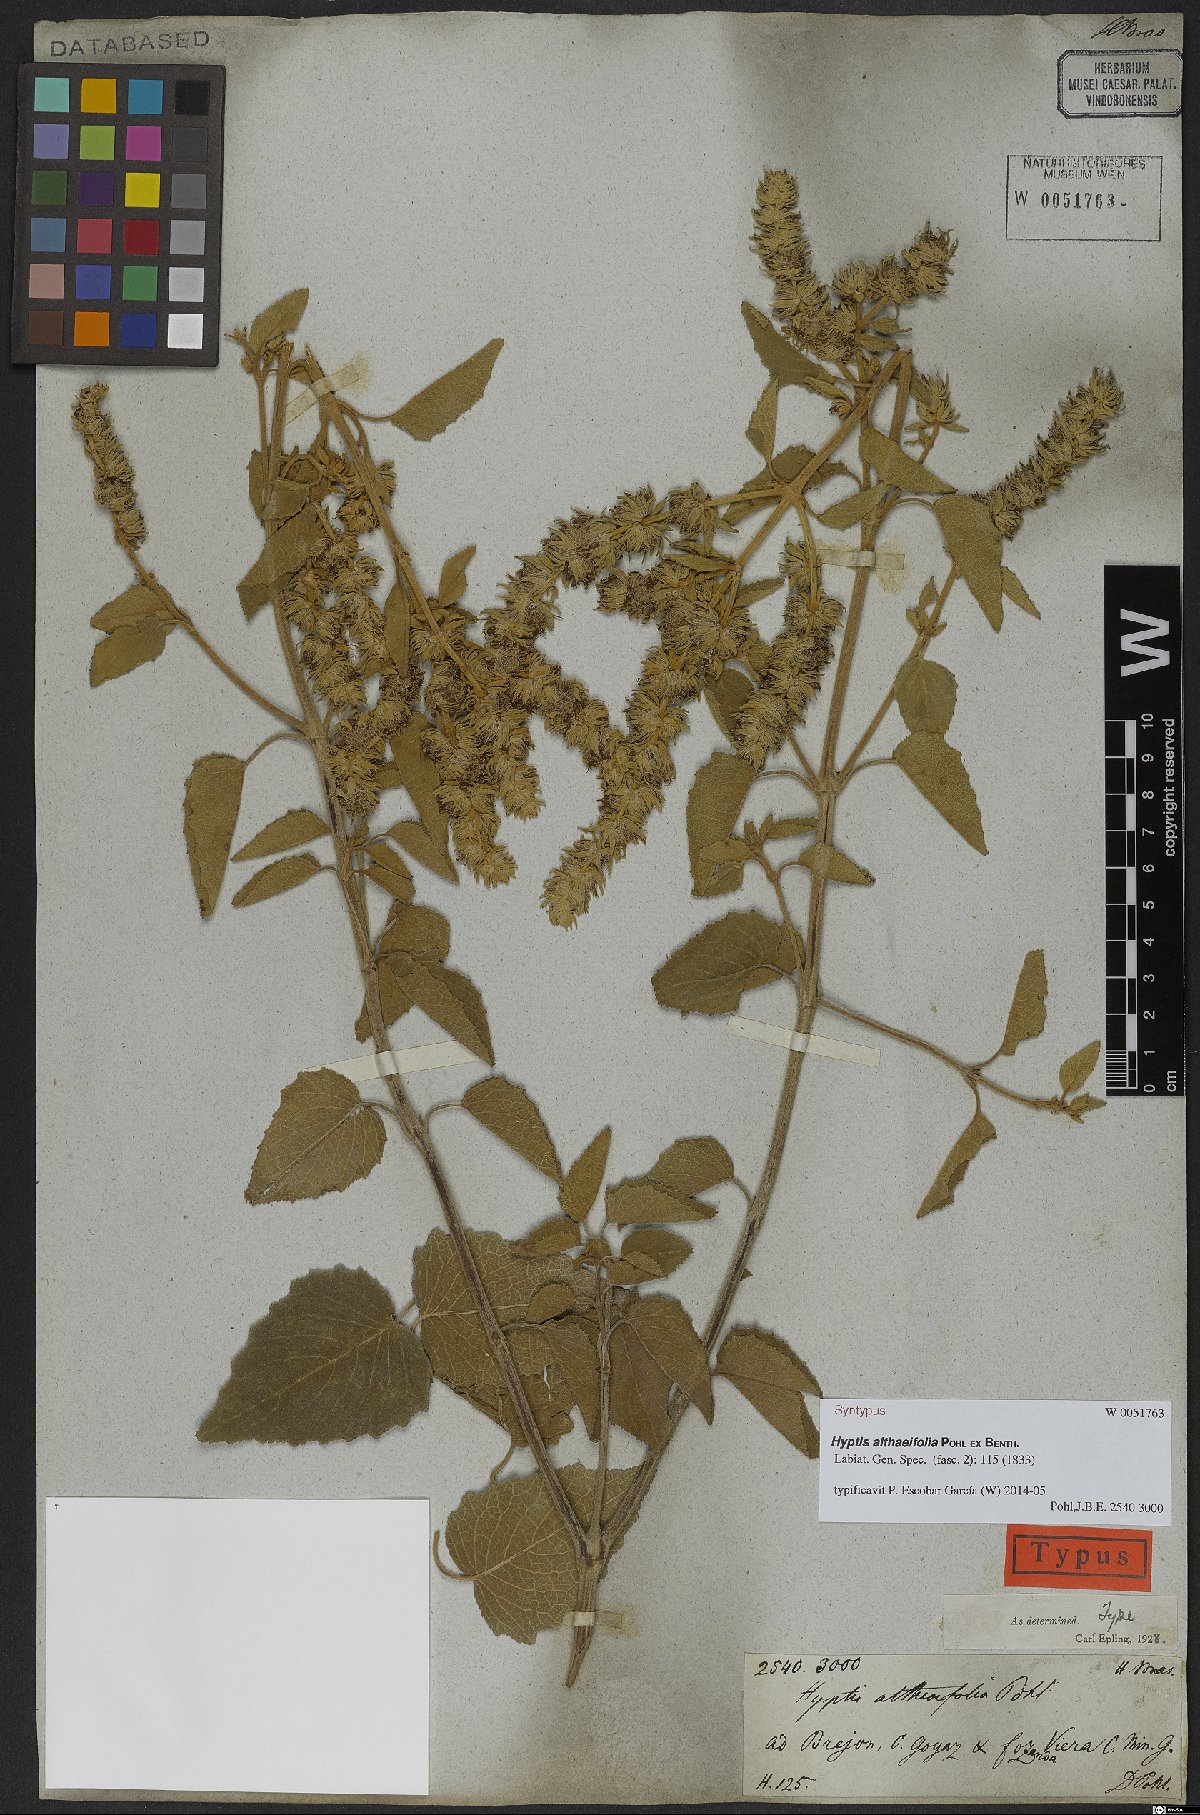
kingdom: Plantae
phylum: Tracheophyta
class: Magnoliopsida
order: Lamiales
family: Lamiaceae
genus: Cantinoa
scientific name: Cantinoa althaeifolia
